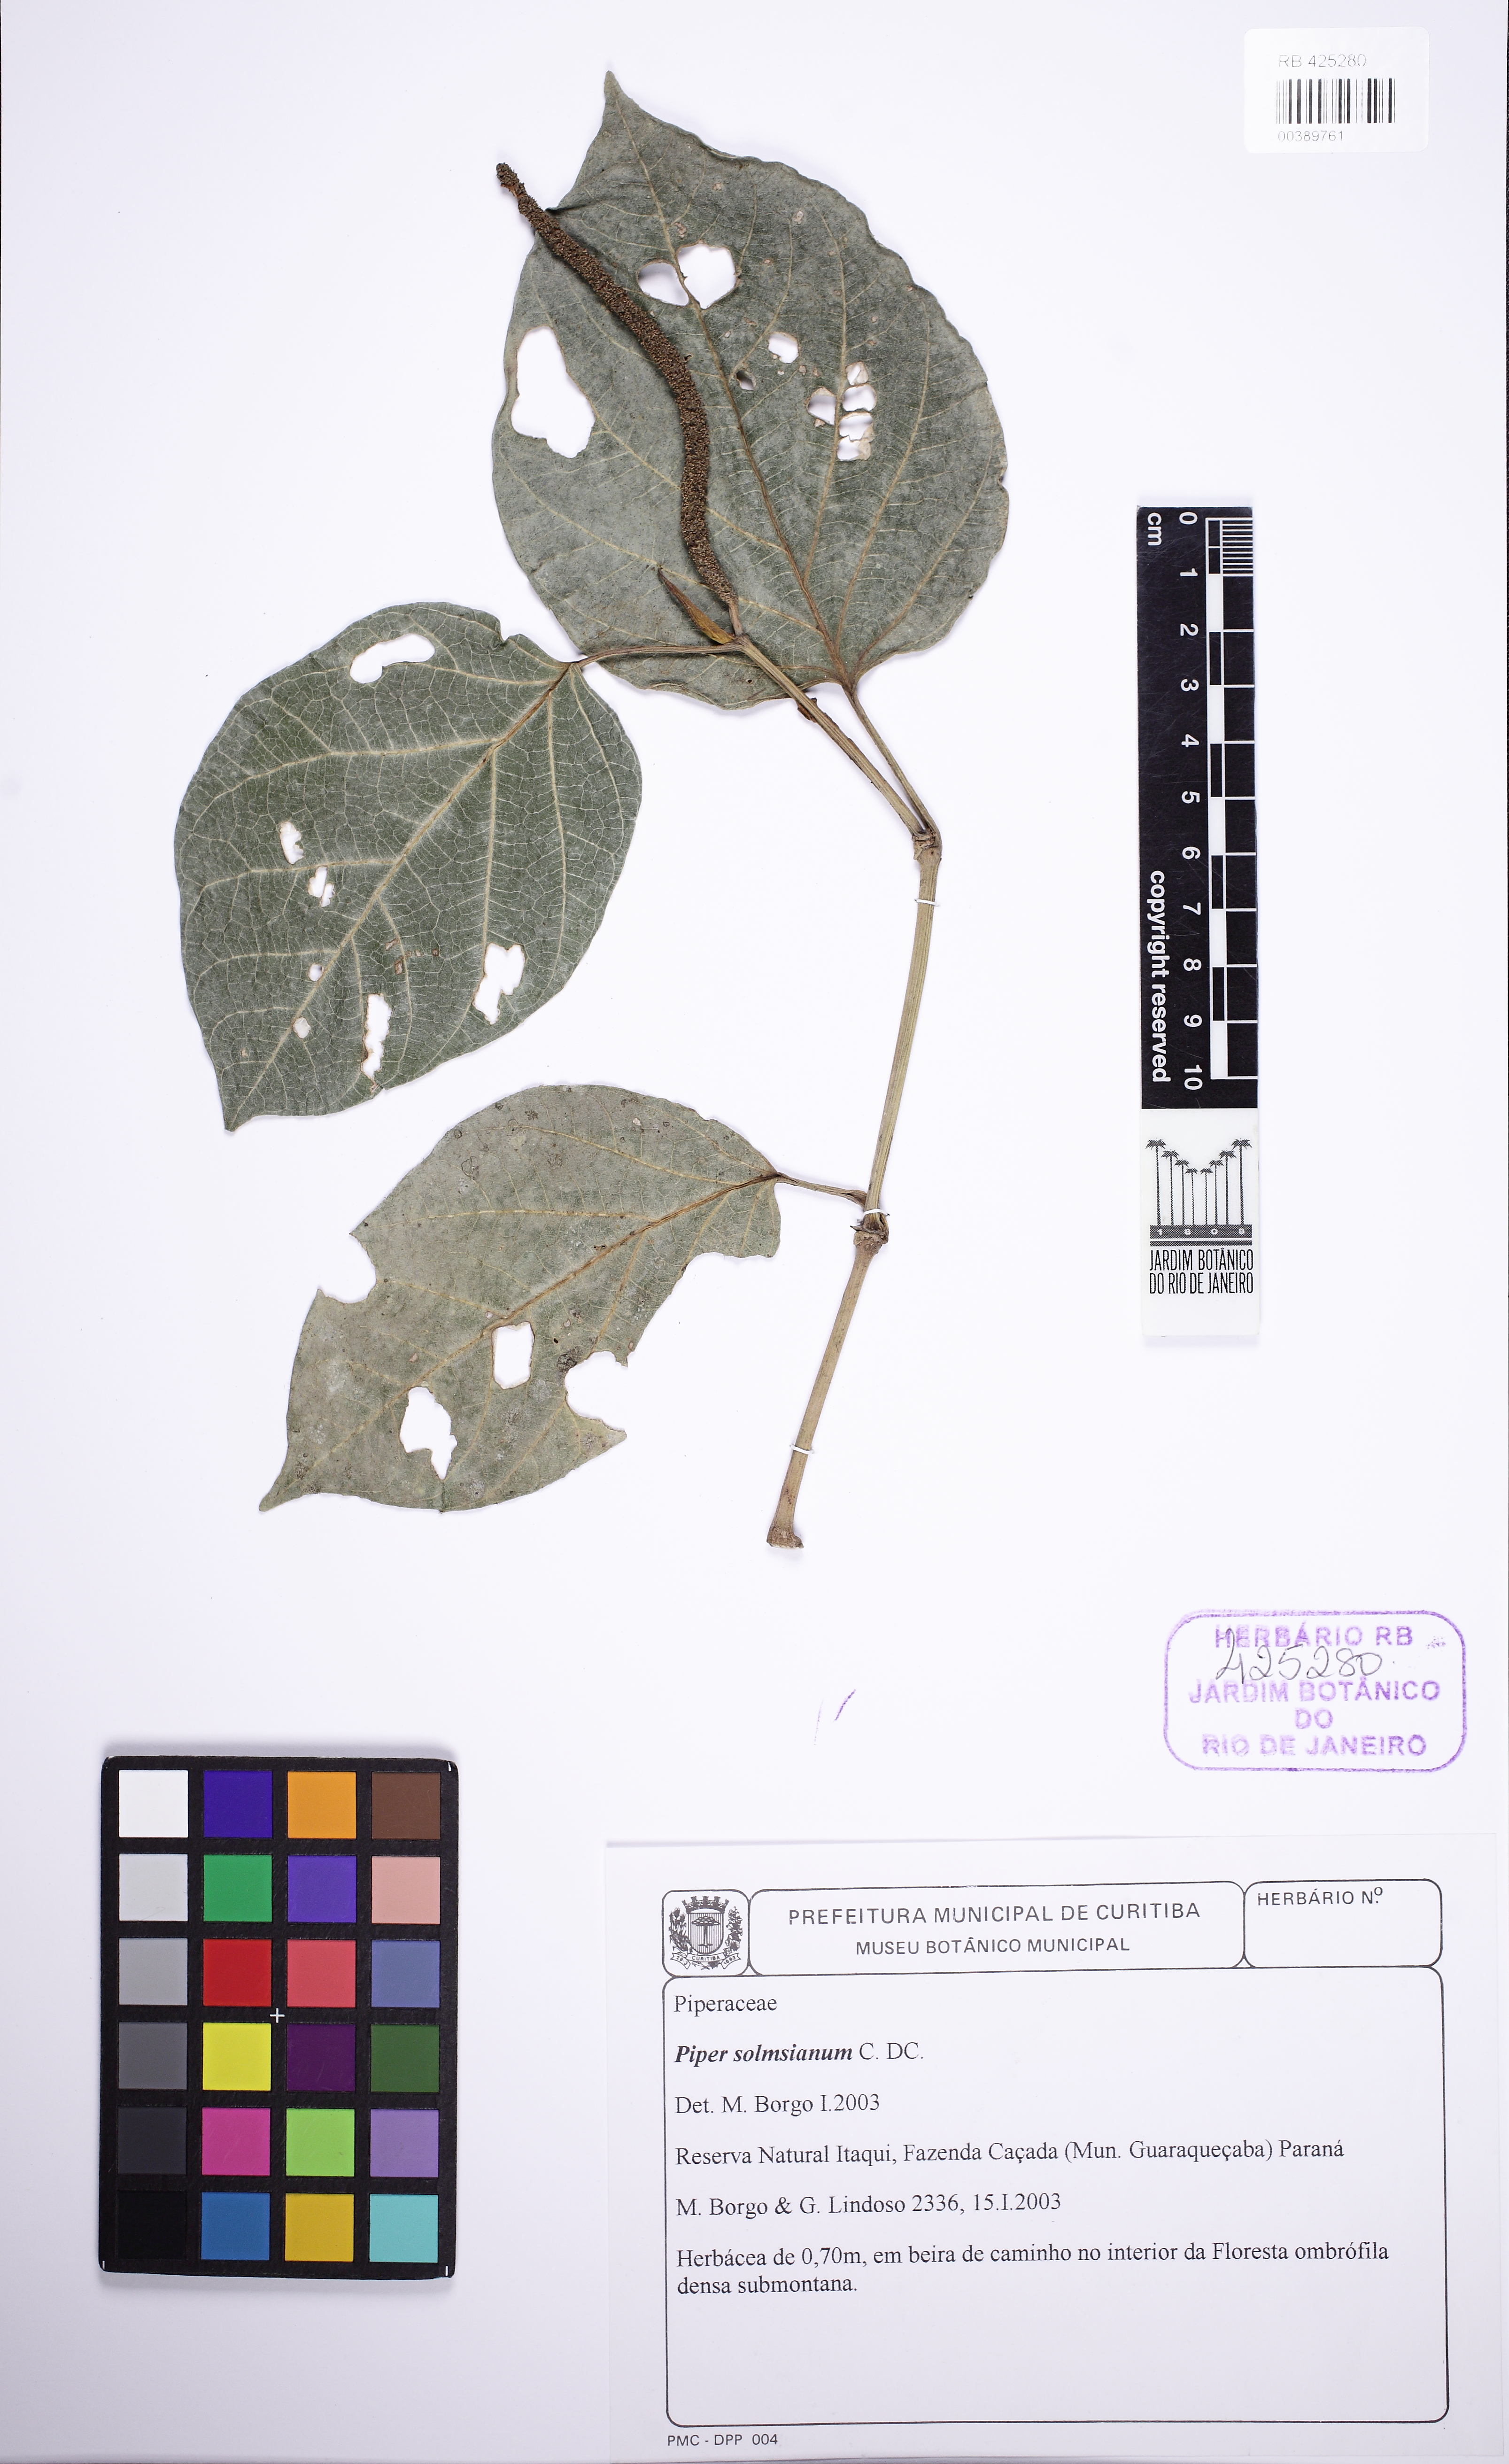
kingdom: Plantae
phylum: Tracheophyta
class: Magnoliopsida
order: Piperales
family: Piperaceae
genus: Piper
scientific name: Piper solmsianum
